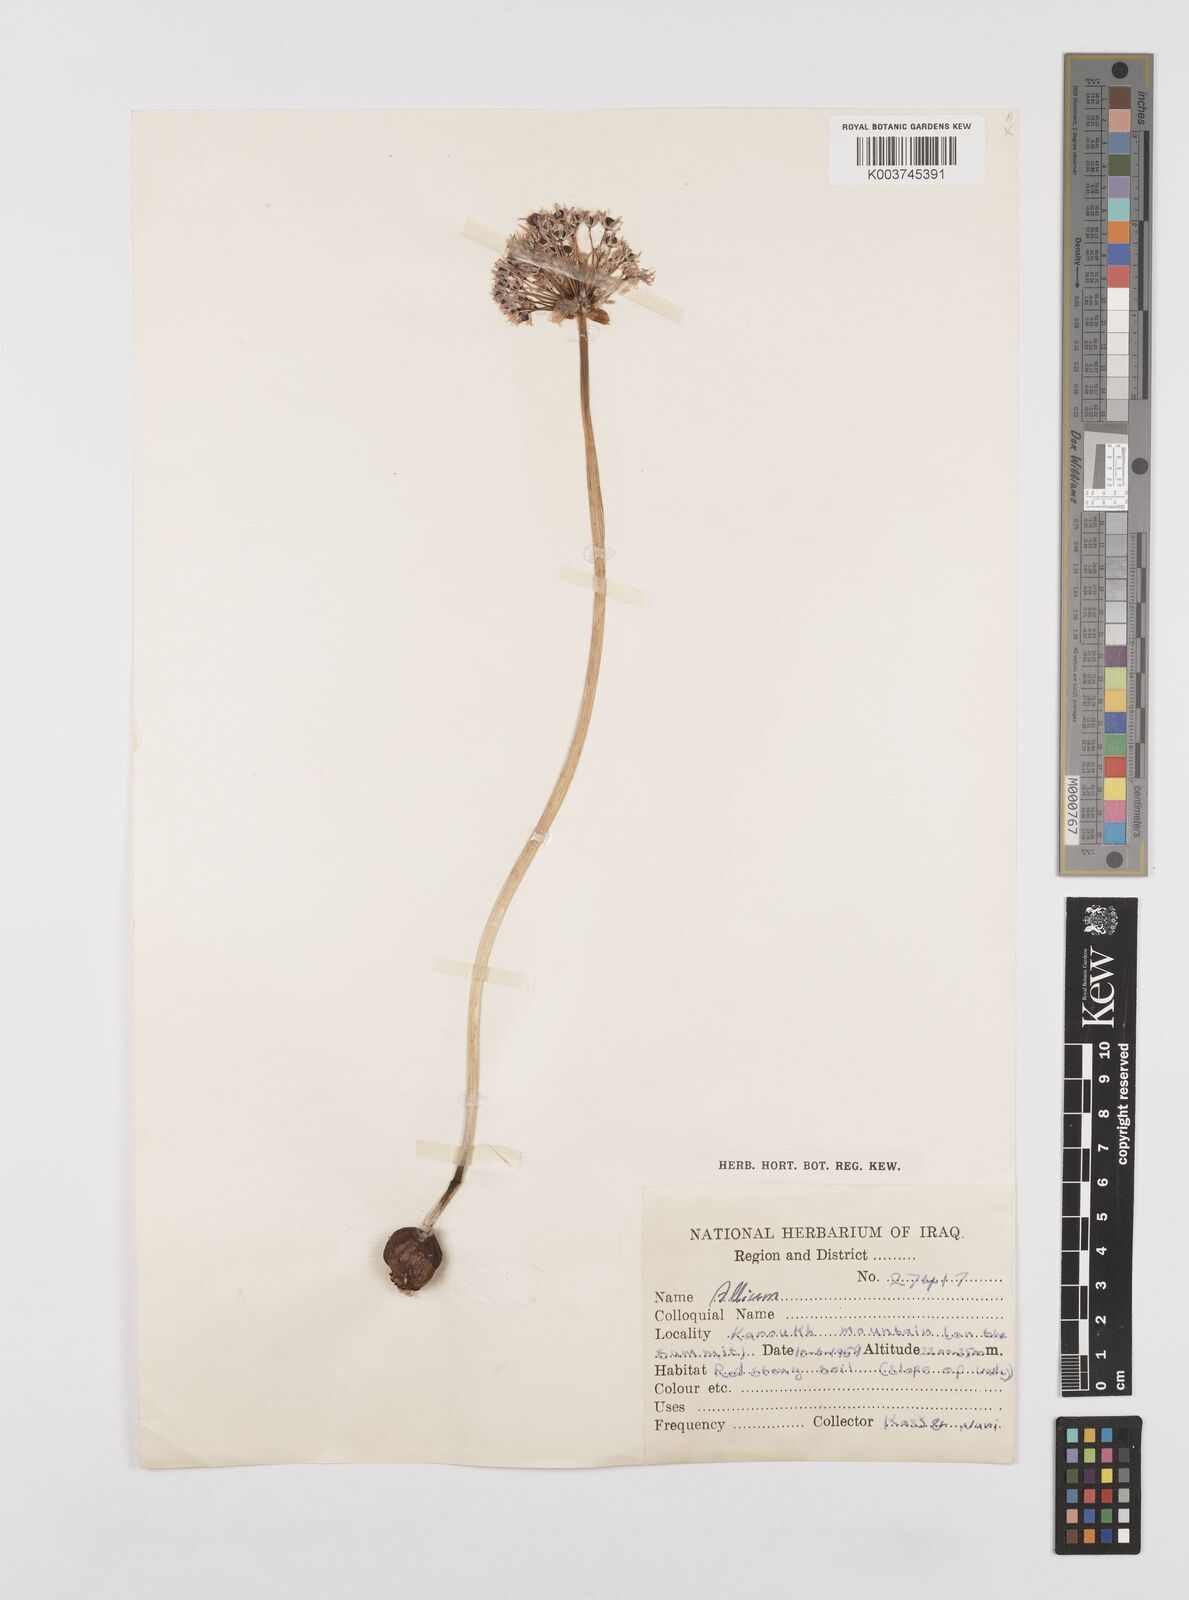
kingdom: Plantae
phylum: Tracheophyta
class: Liliopsida
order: Asparagales
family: Amaryllidaceae
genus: Allium
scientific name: Allium
